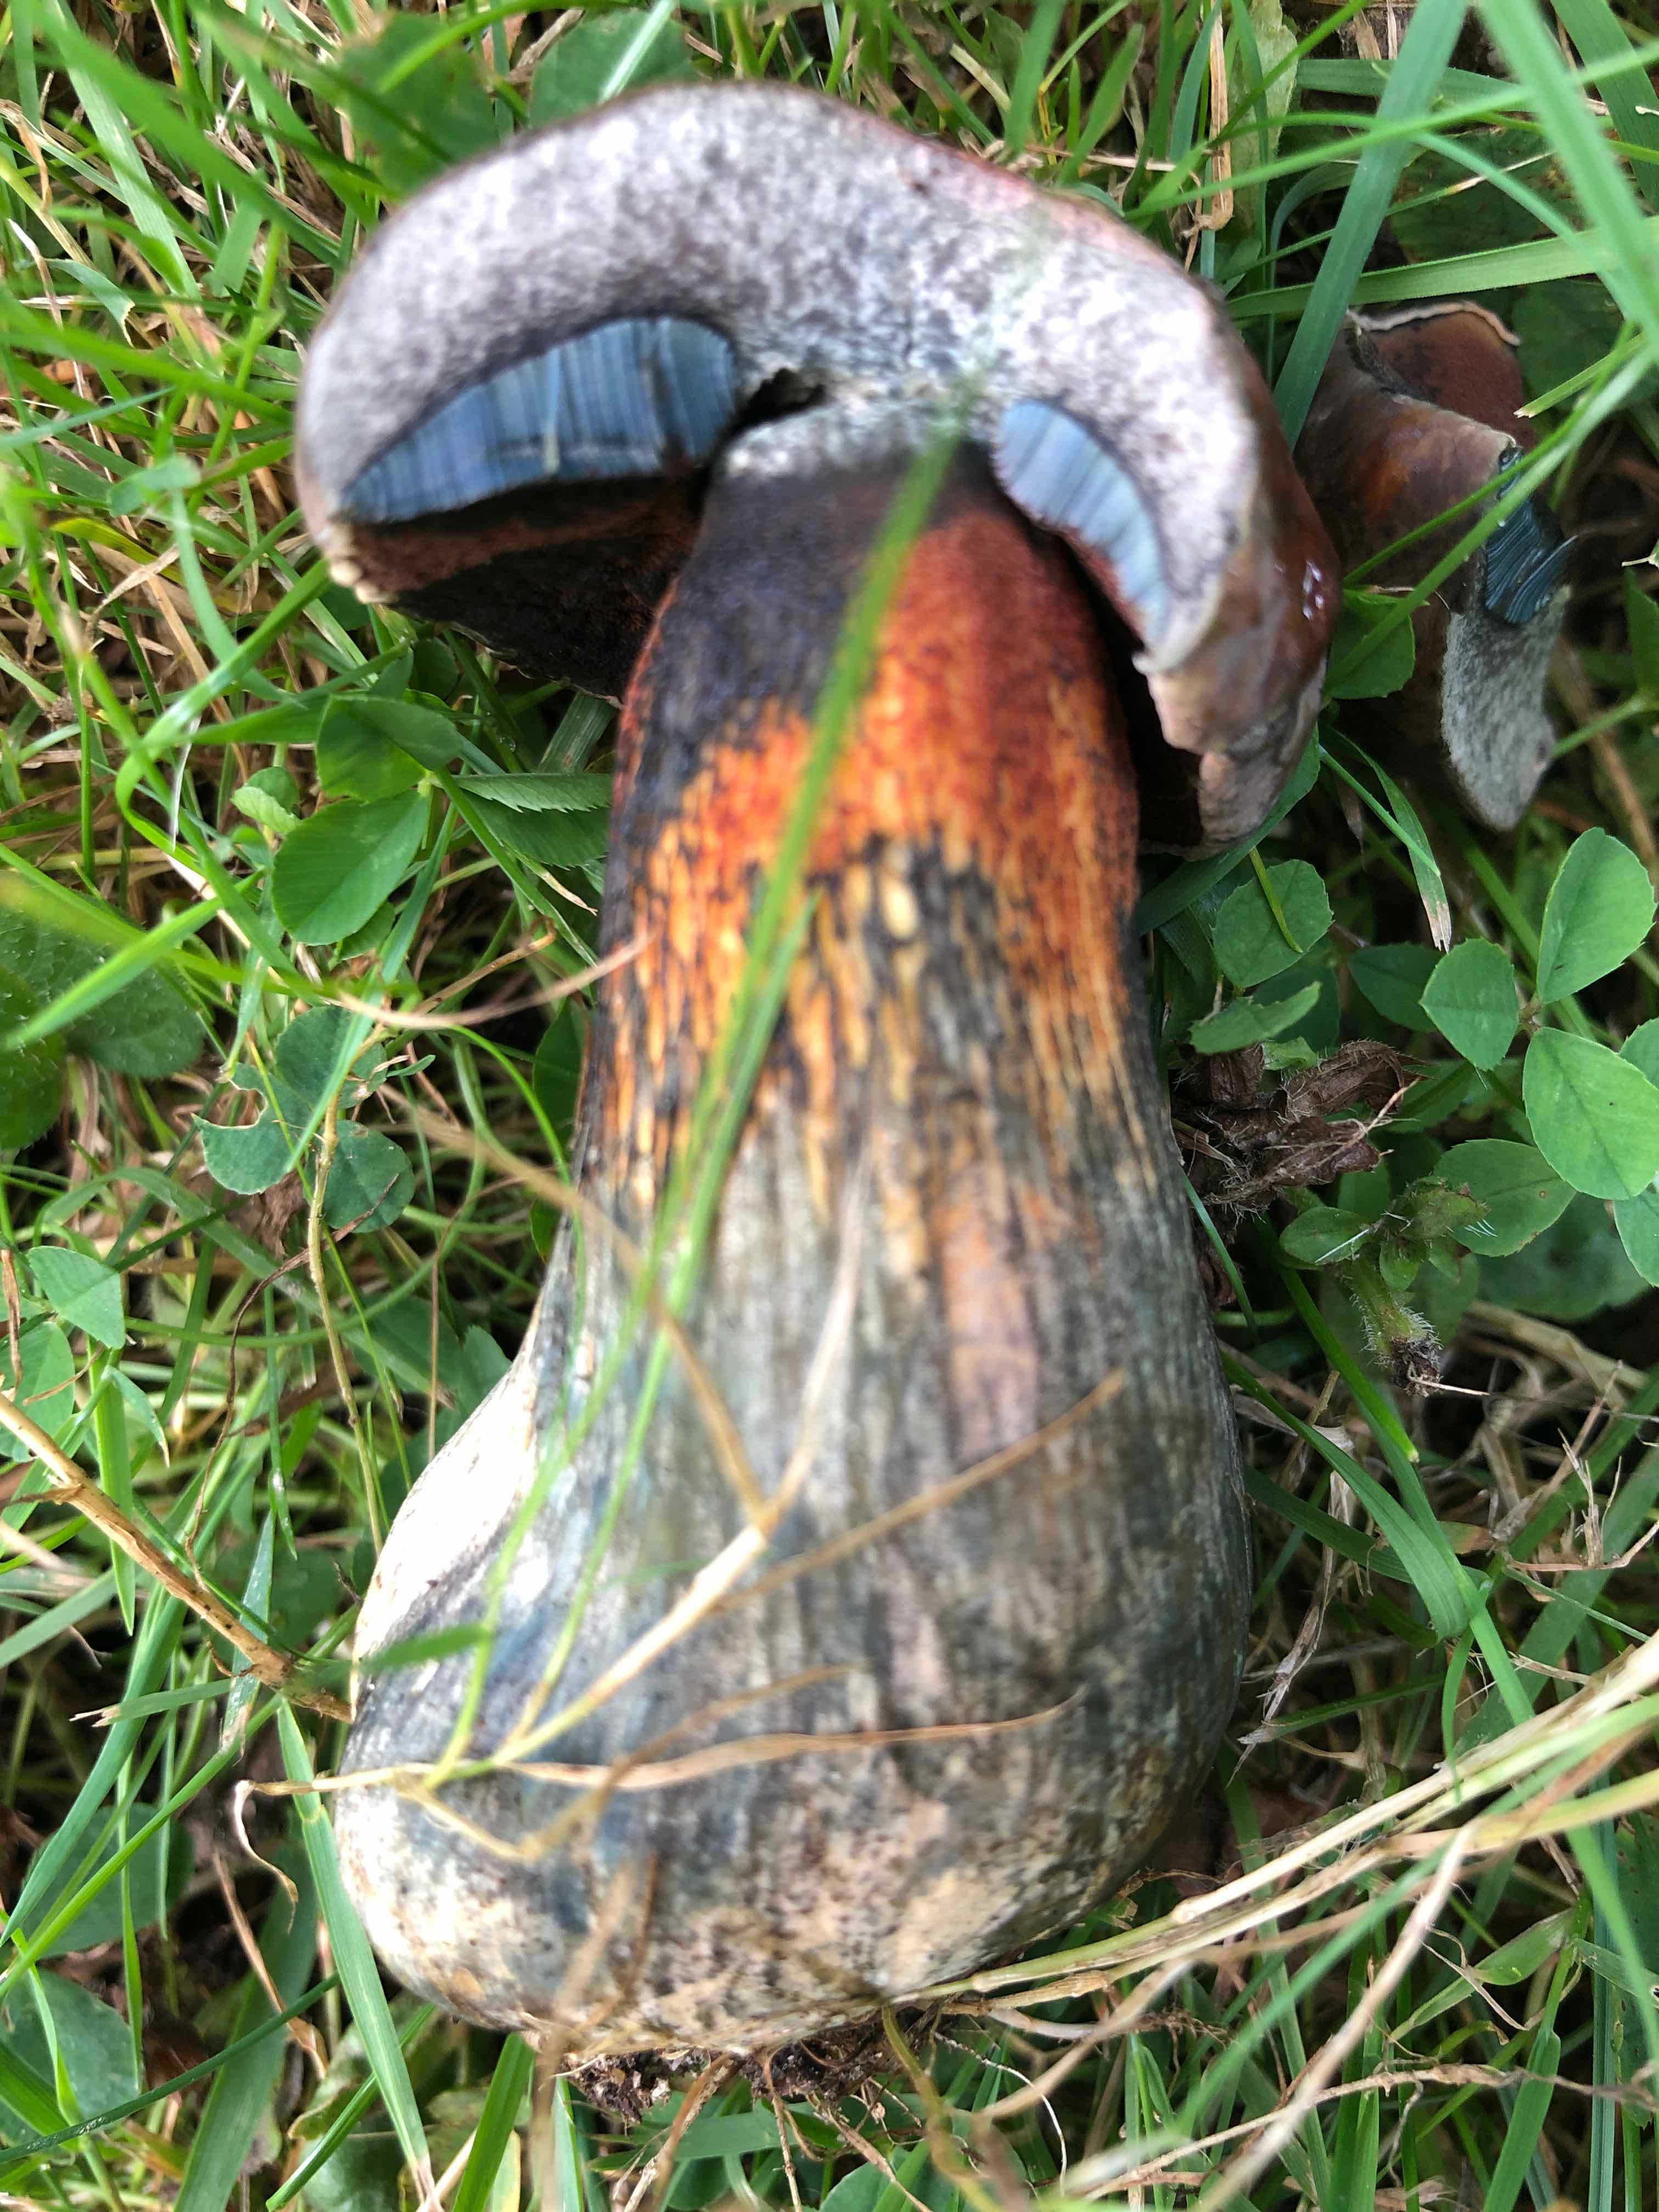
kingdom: Fungi
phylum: Basidiomycota
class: Agaricomycetes
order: Boletales
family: Boletaceae
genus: Suillellus
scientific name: Suillellus luridus
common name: netstokket indigorørhat
